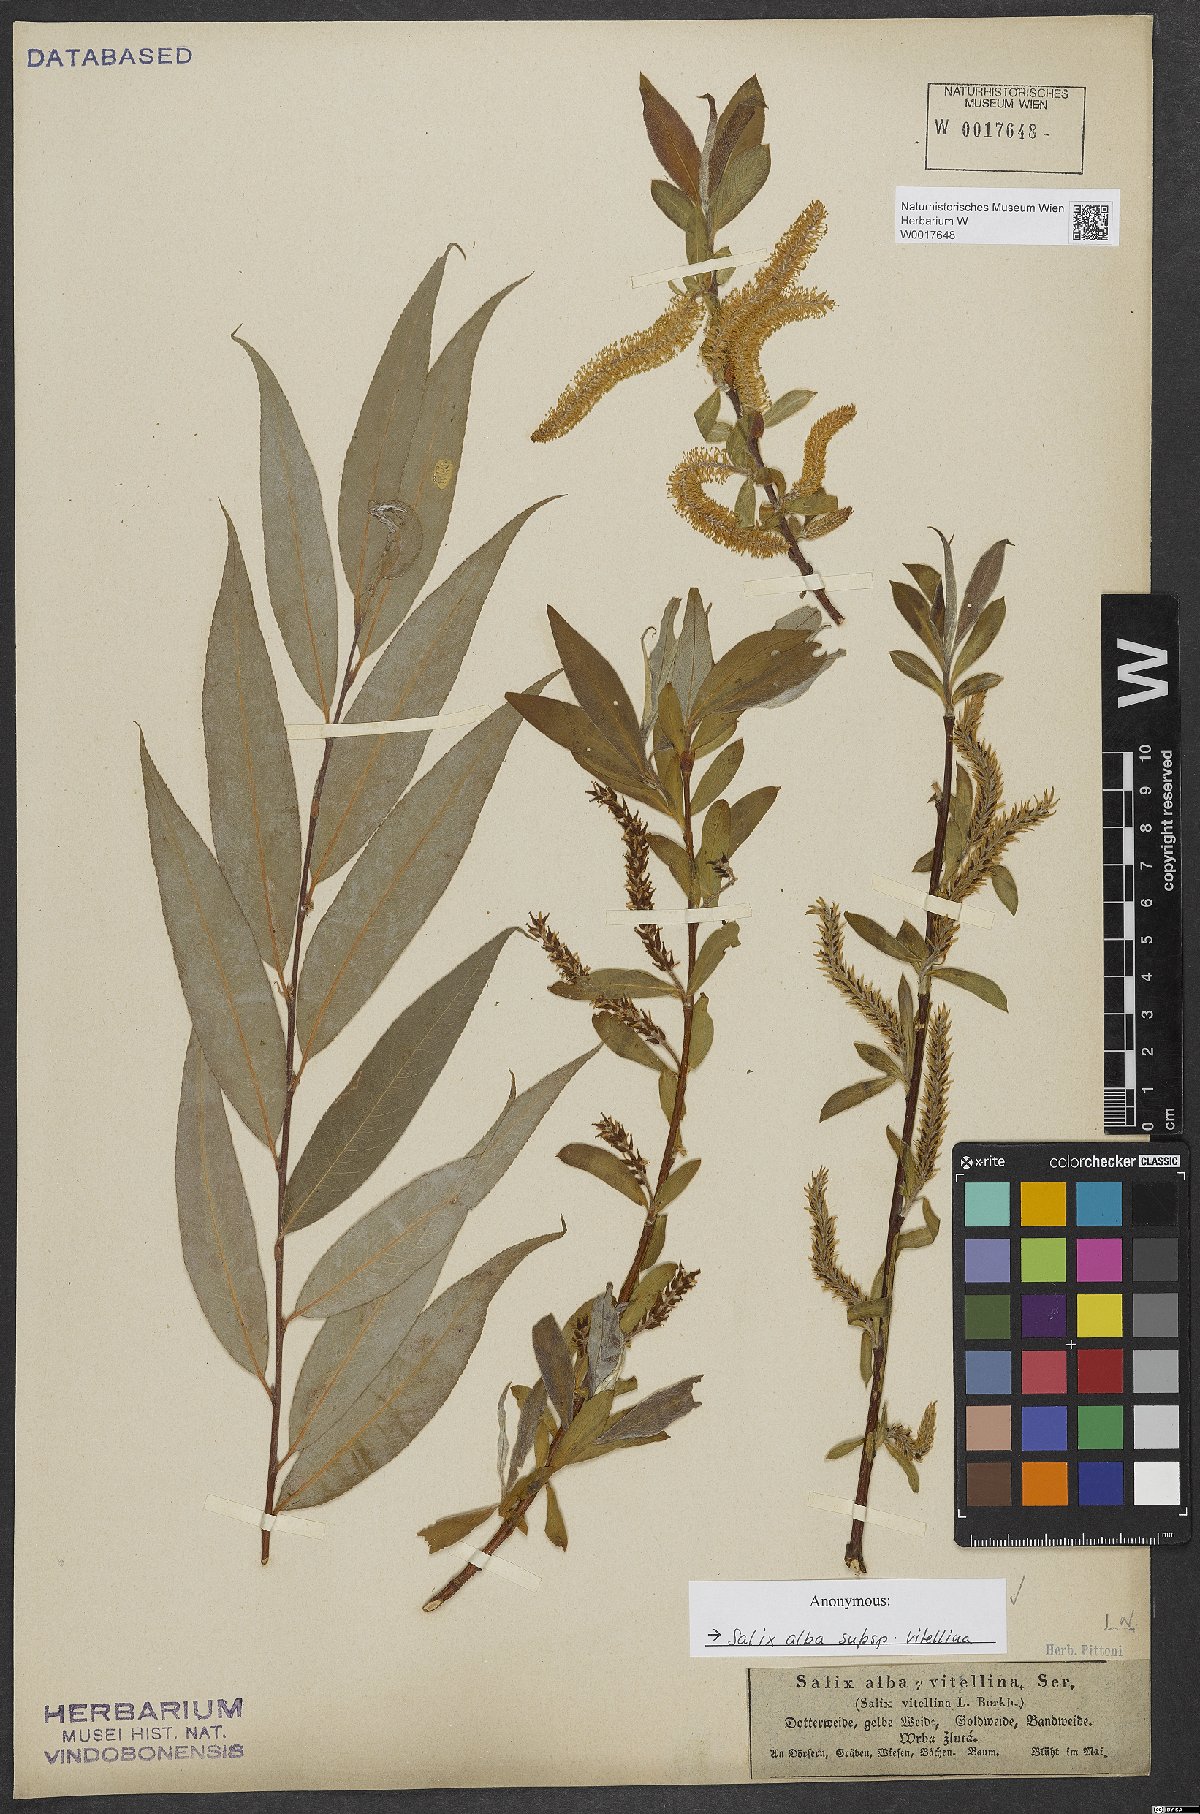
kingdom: Plantae
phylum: Tracheophyta
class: Magnoliopsida
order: Malpighiales
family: Salicaceae
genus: Salix
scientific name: Salix alba
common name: White willow
